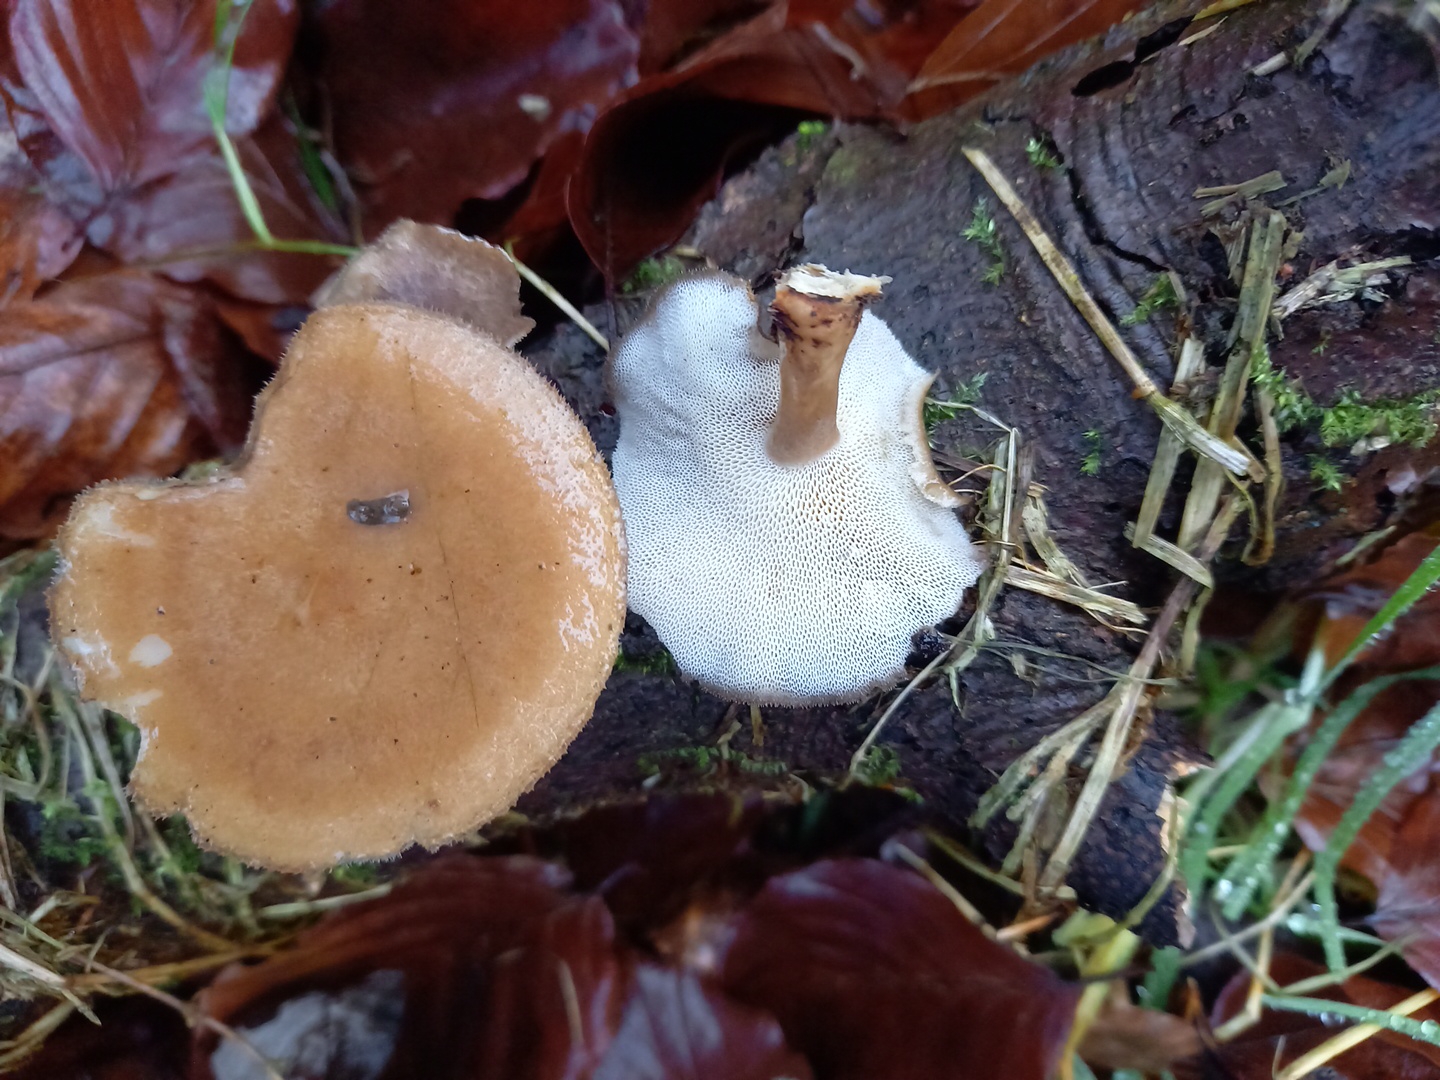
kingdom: Fungi
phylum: Basidiomycota
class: Agaricomycetes
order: Polyporales
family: Polyporaceae
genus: Lentinus
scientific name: Lentinus brumalis
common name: vinter-stilkporesvamp
